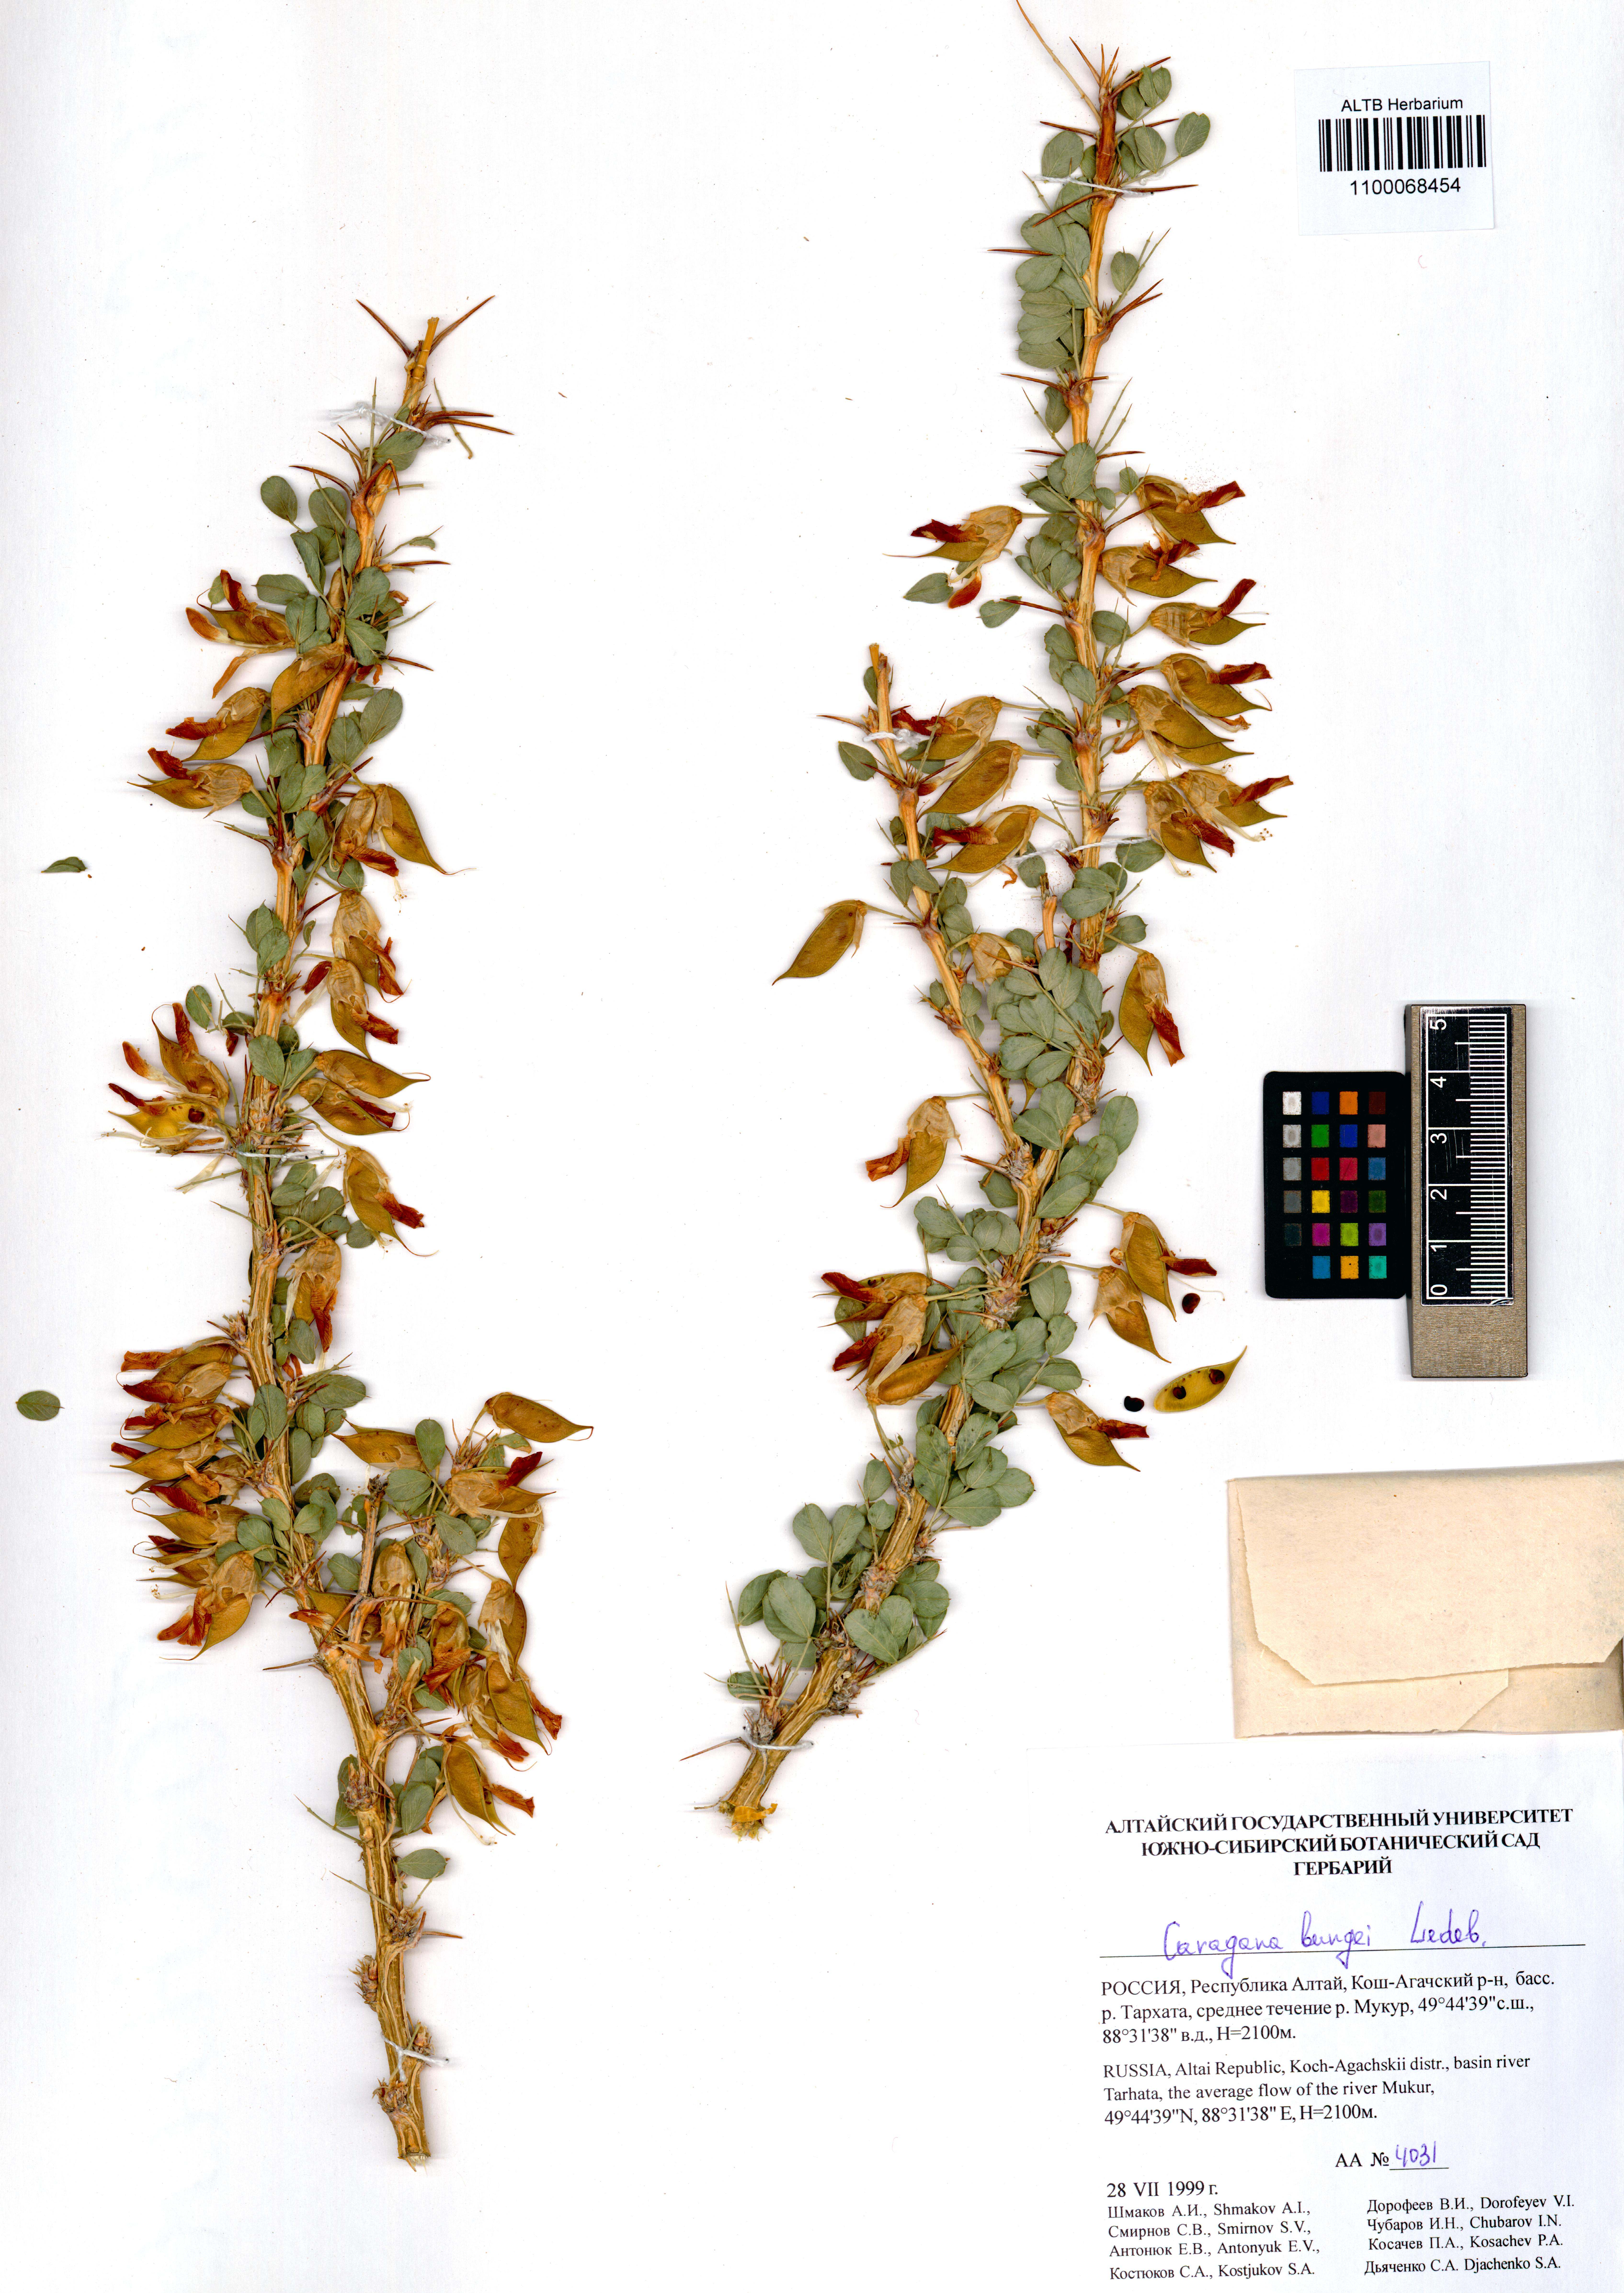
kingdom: Plantae
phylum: Tracheophyta
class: Magnoliopsida
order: Fabales
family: Fabaceae
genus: Caragana
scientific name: Caragana bungei
